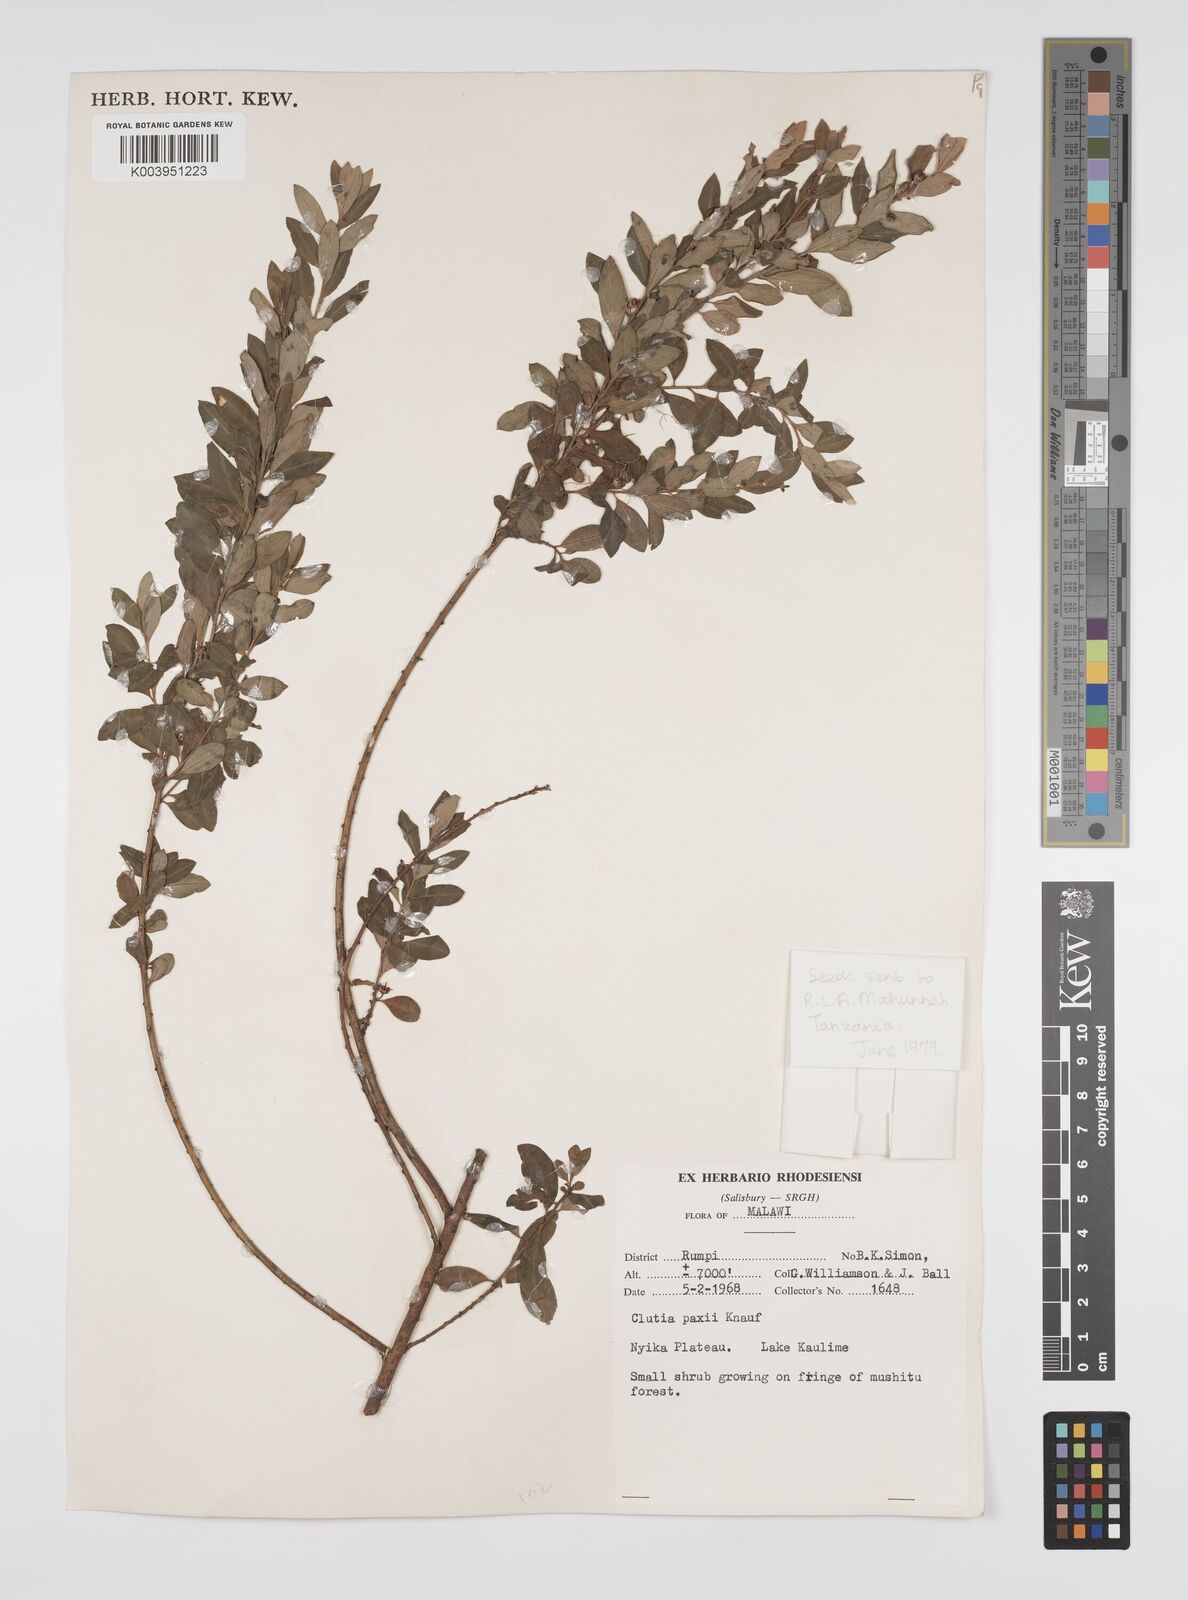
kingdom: Plantae
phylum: Tracheophyta
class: Magnoliopsida
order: Malpighiales
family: Peraceae
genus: Clutia
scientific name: Clutia paxii
